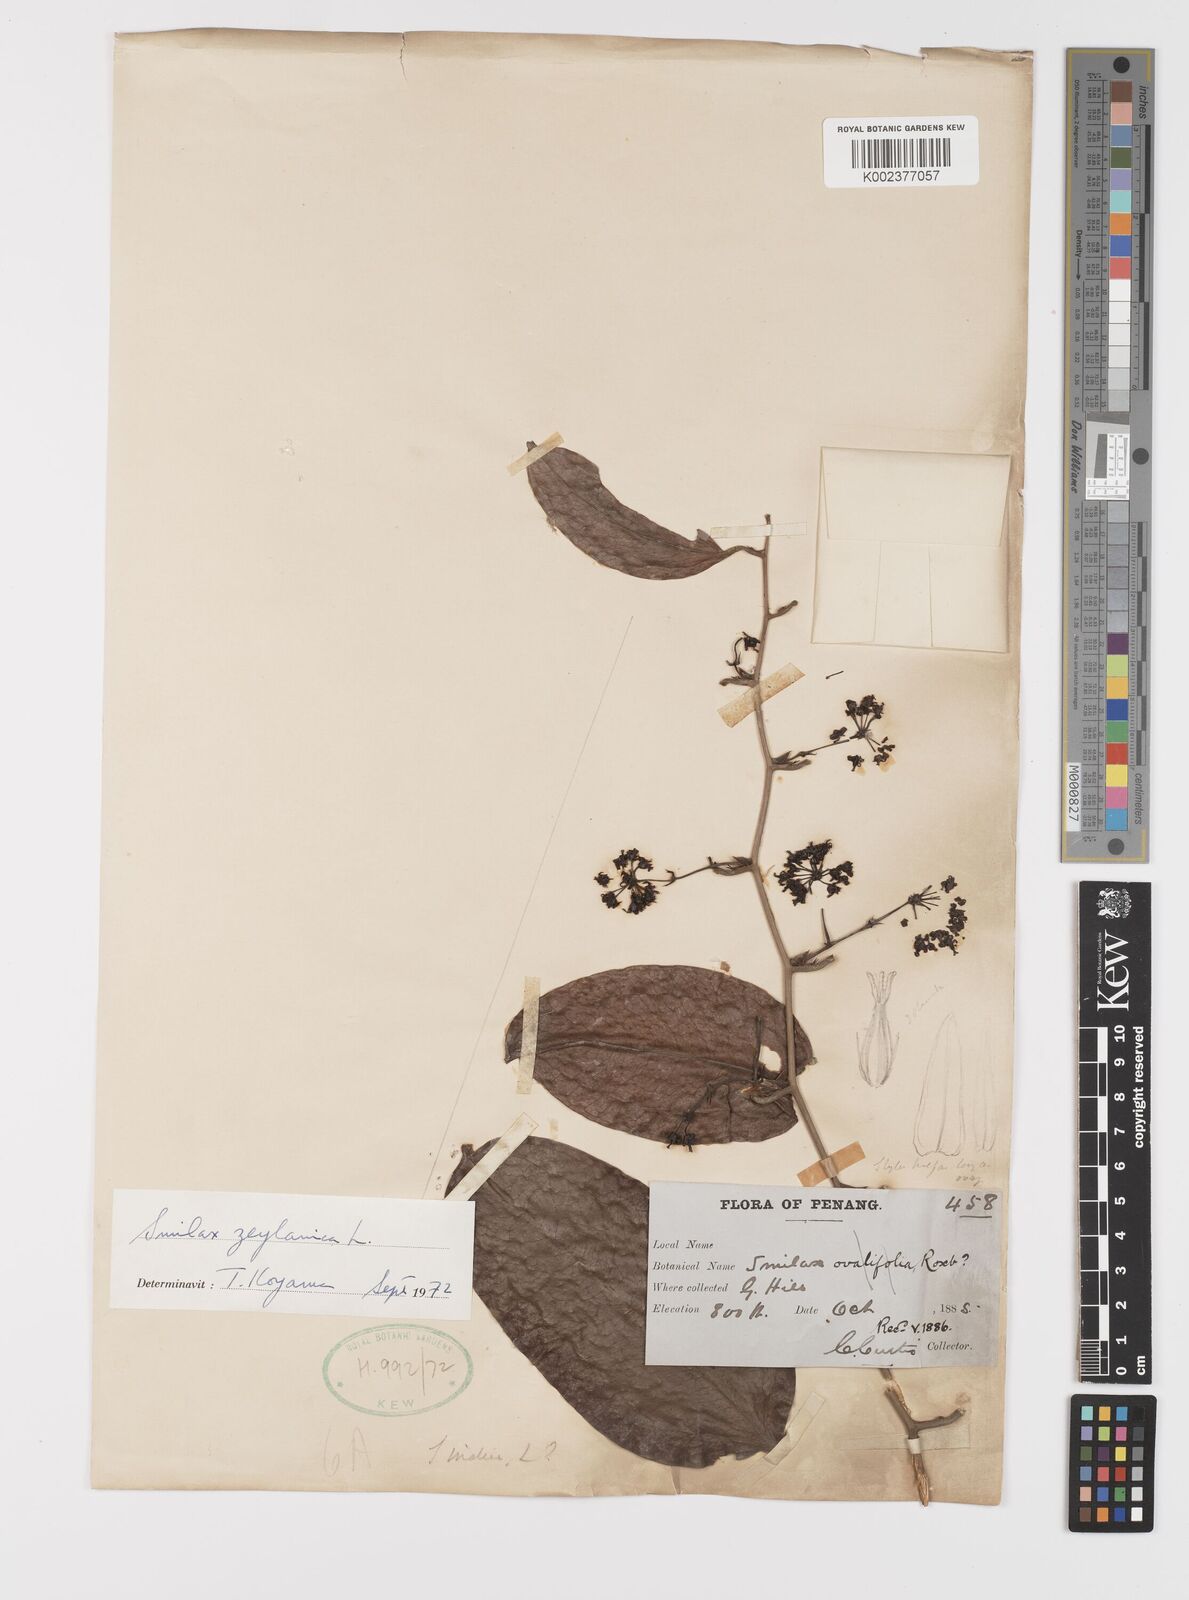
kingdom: Plantae
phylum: Tracheophyta
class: Liliopsida
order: Liliales
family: Smilacaceae
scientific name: Smilacaceae
